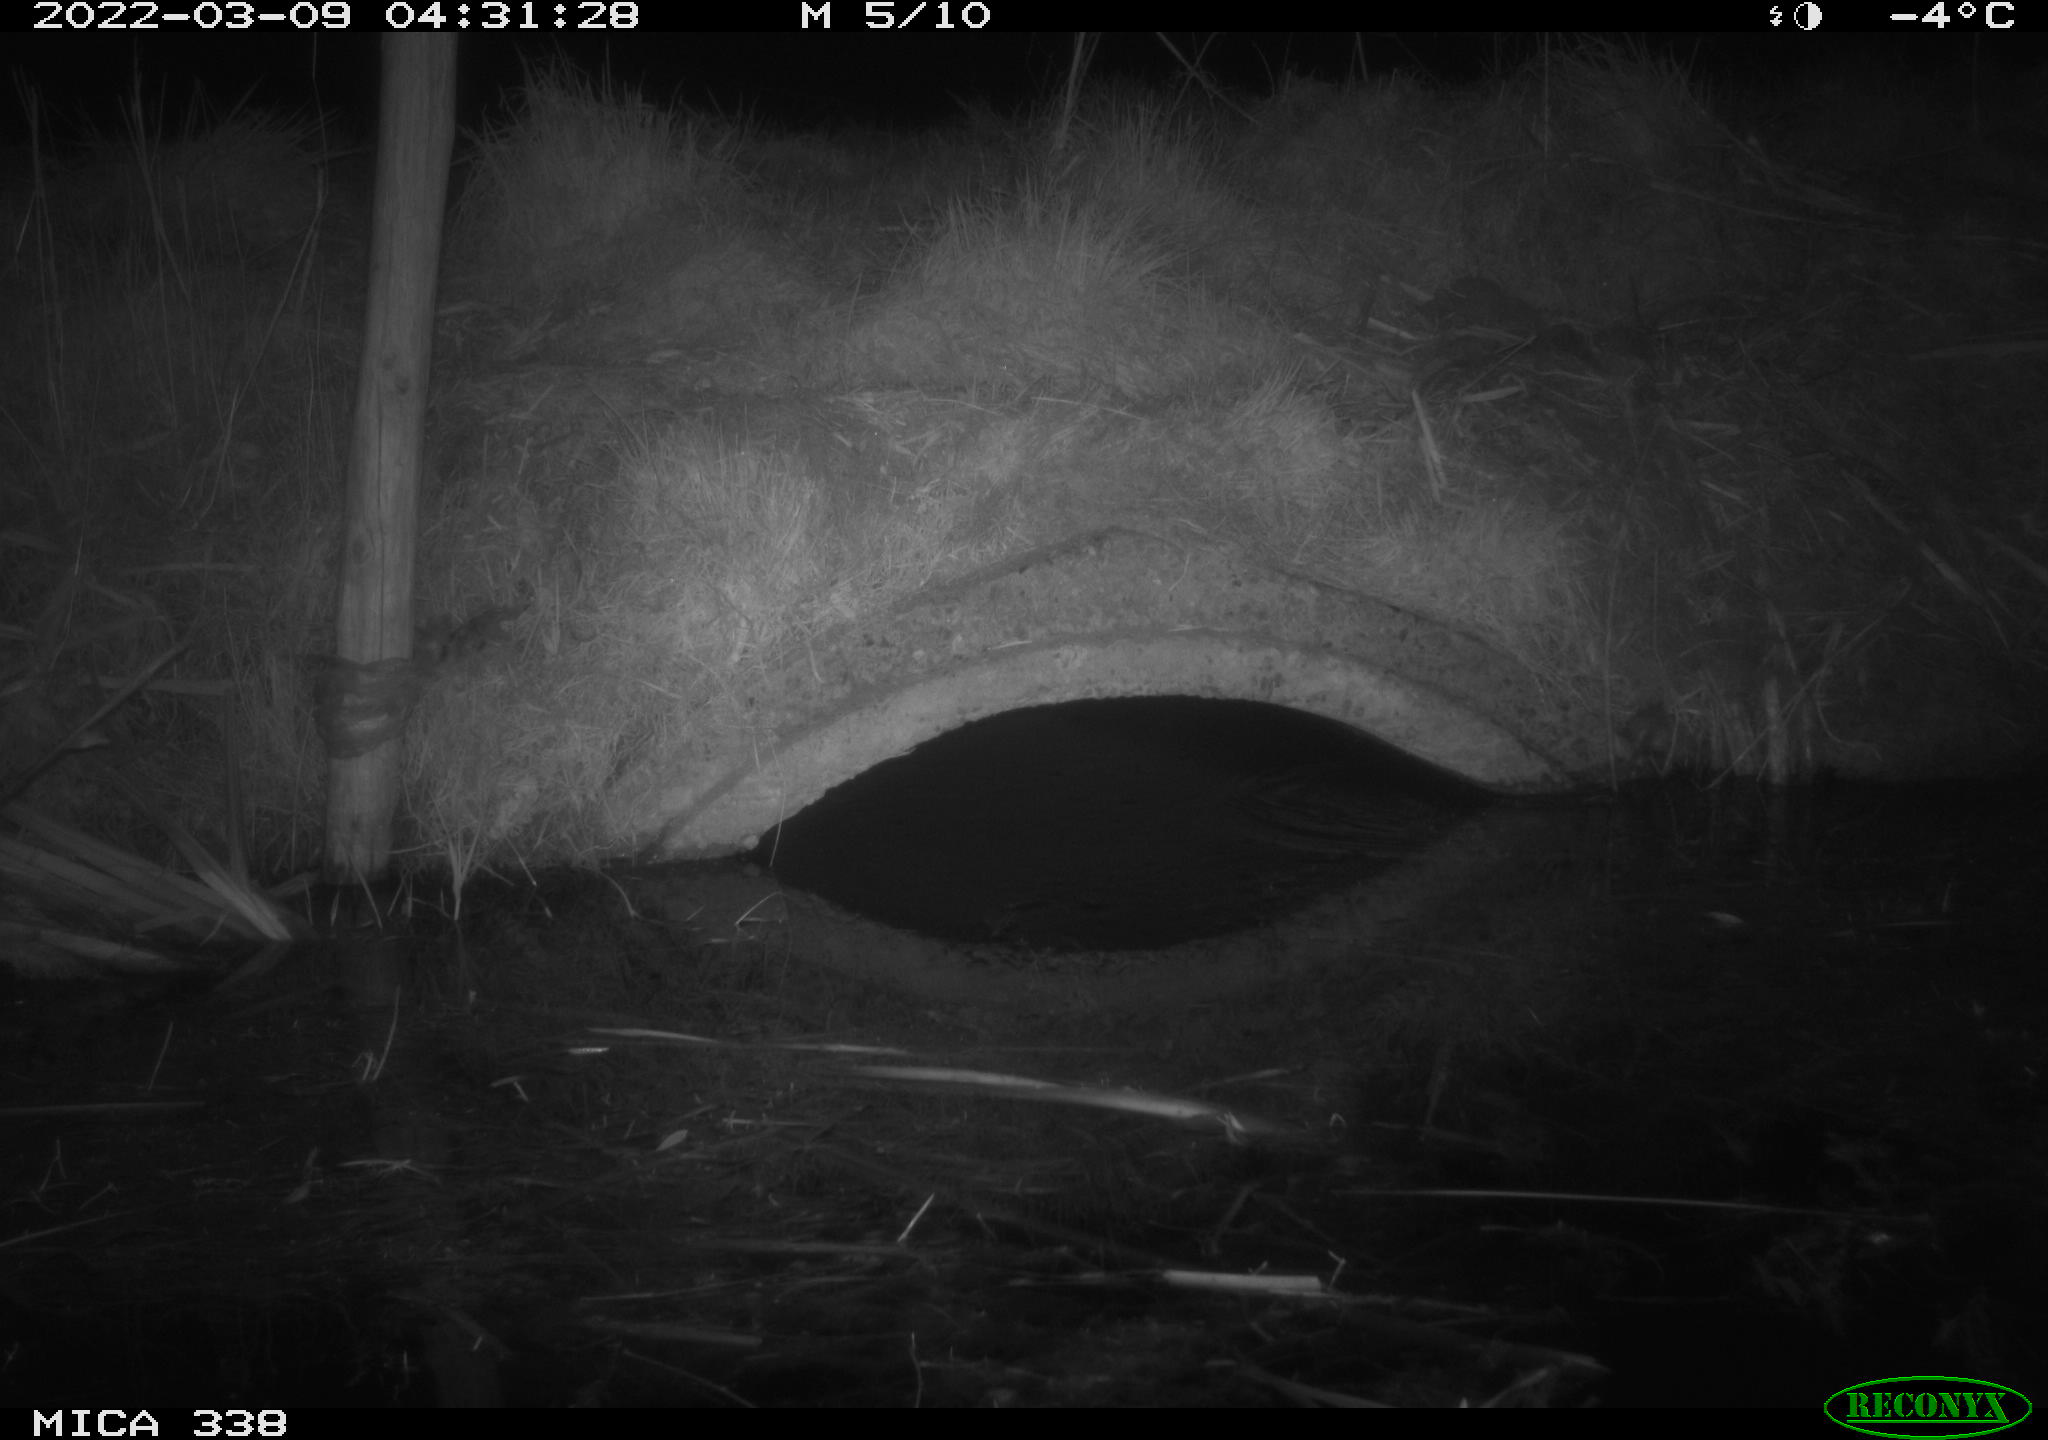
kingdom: Animalia
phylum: Chordata
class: Mammalia
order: Rodentia
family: Muridae
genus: Rattus
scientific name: Rattus norvegicus
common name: Brown rat
